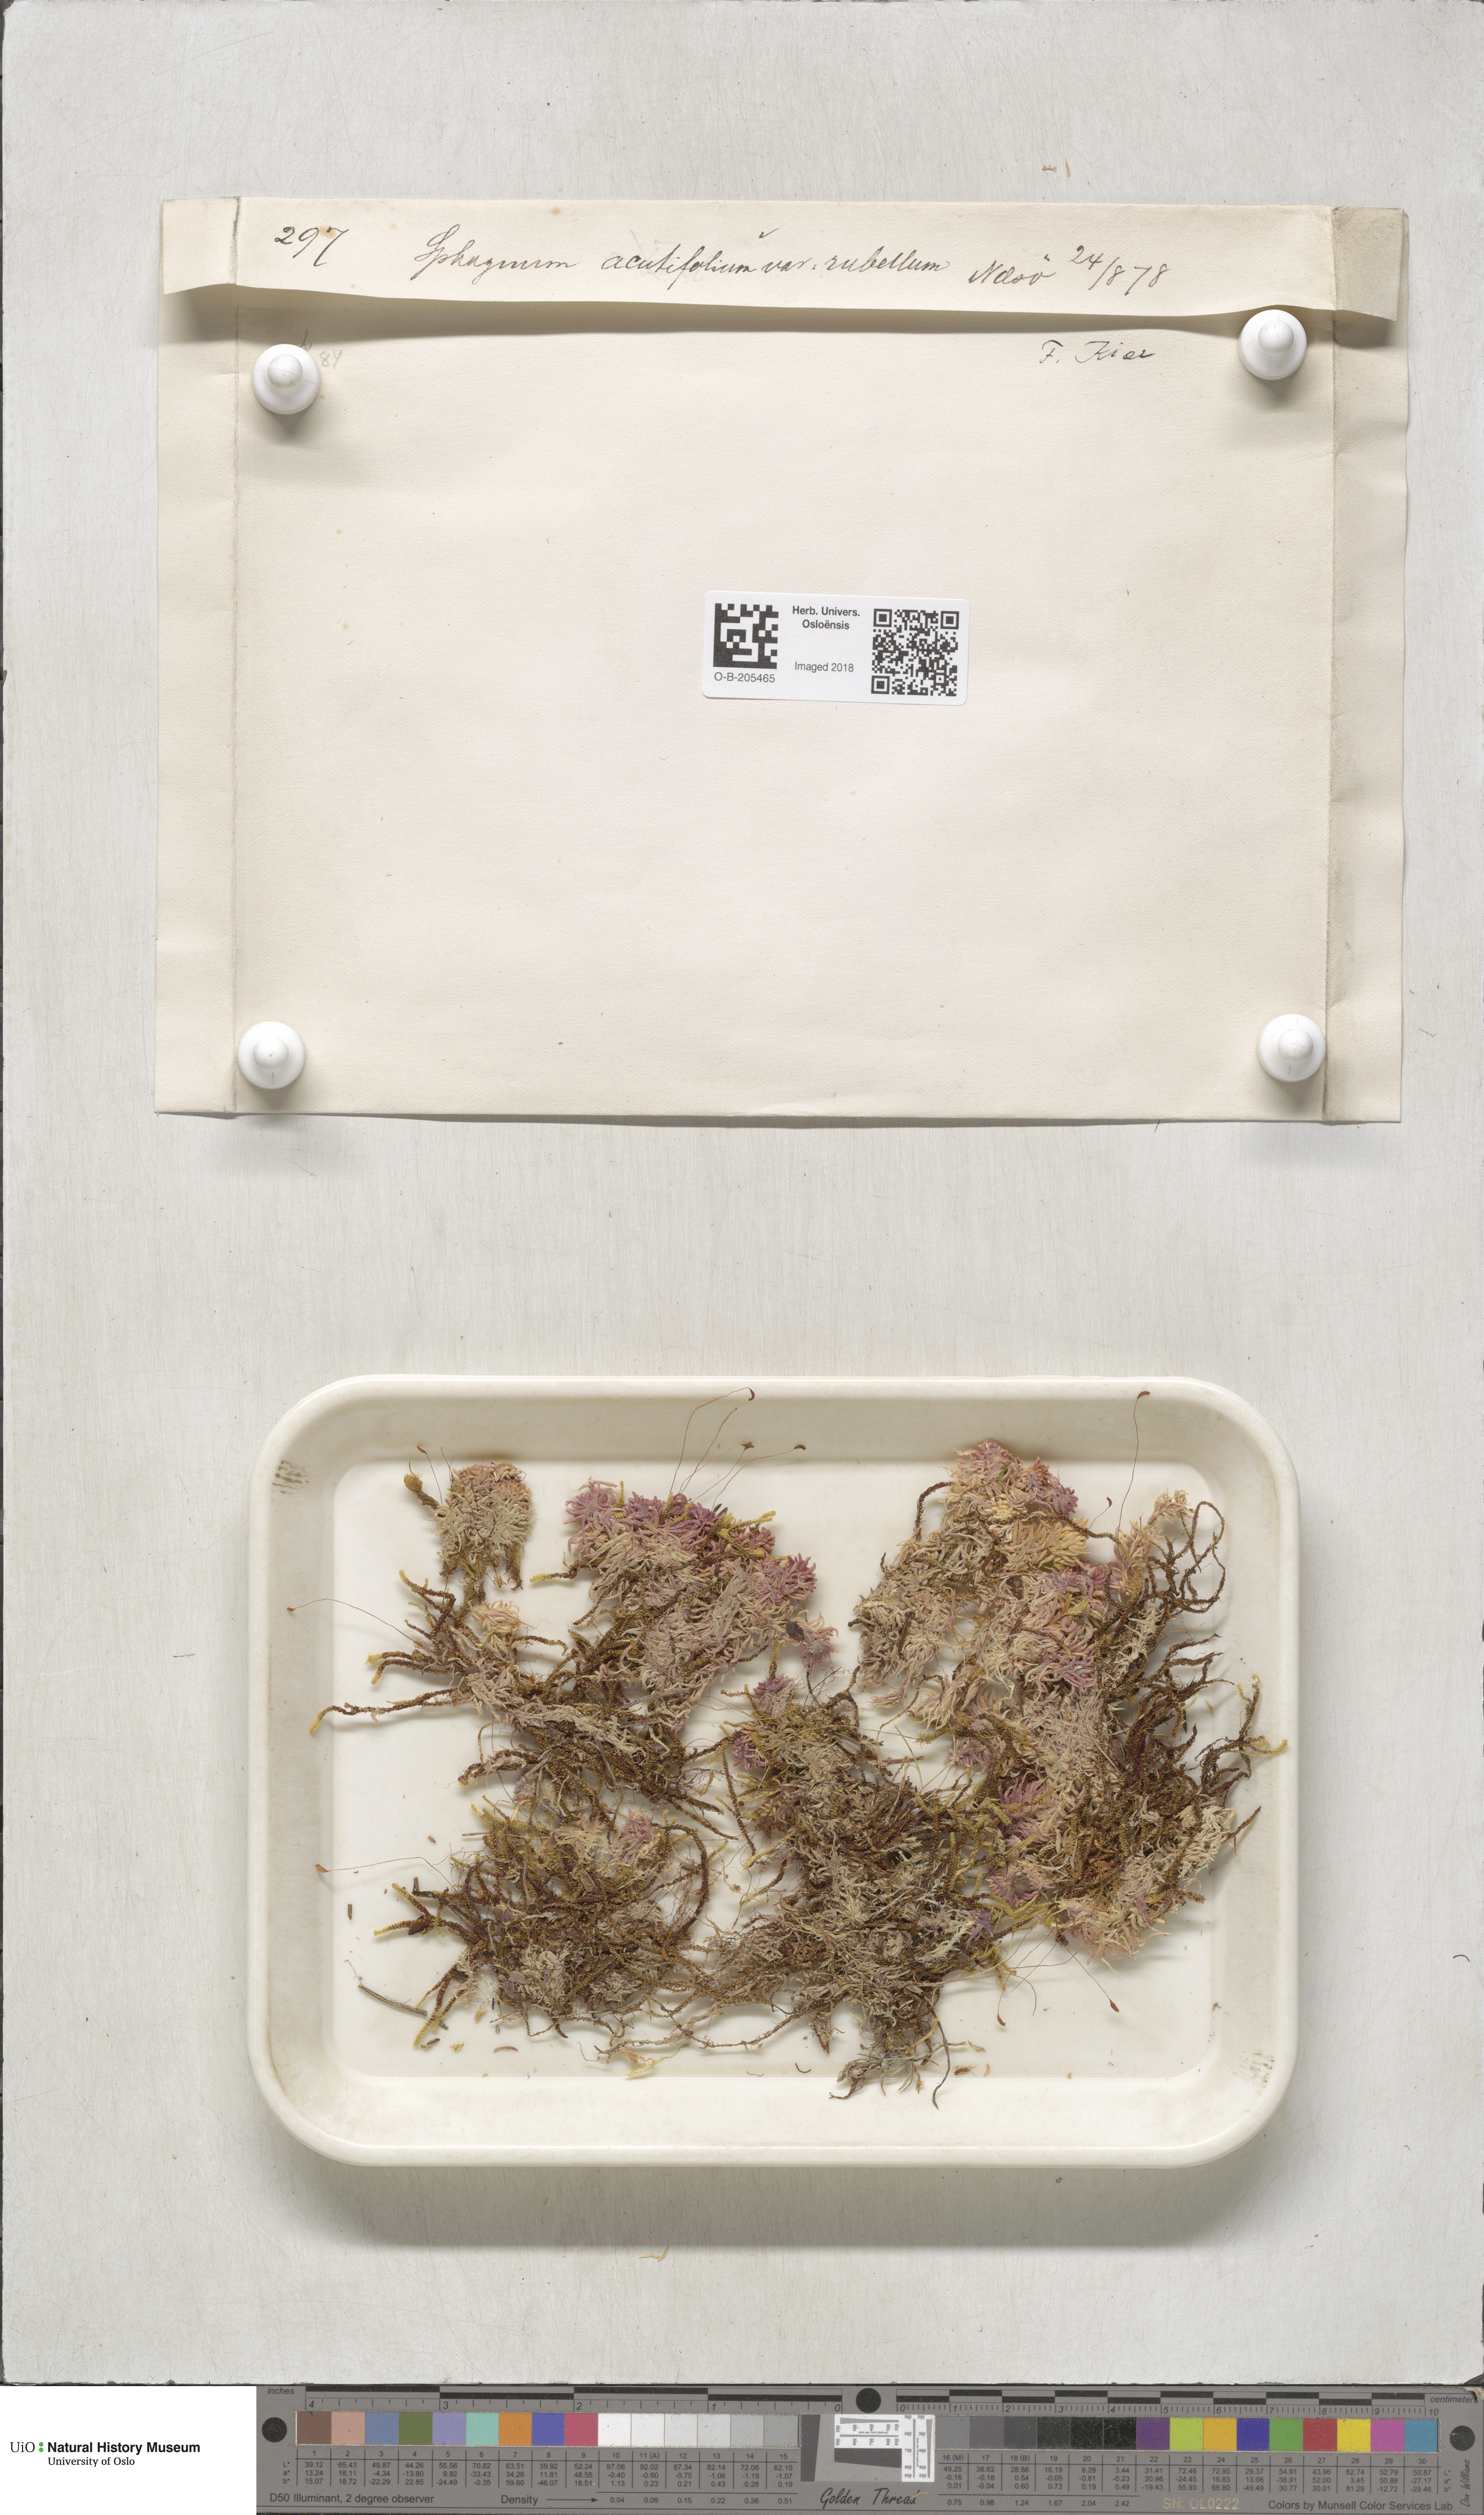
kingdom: Plantae
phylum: Bryophyta
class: Sphagnopsida
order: Sphagnales
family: Sphagnaceae
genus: Sphagnum
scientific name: Sphagnum rubellum
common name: Red peat moss
